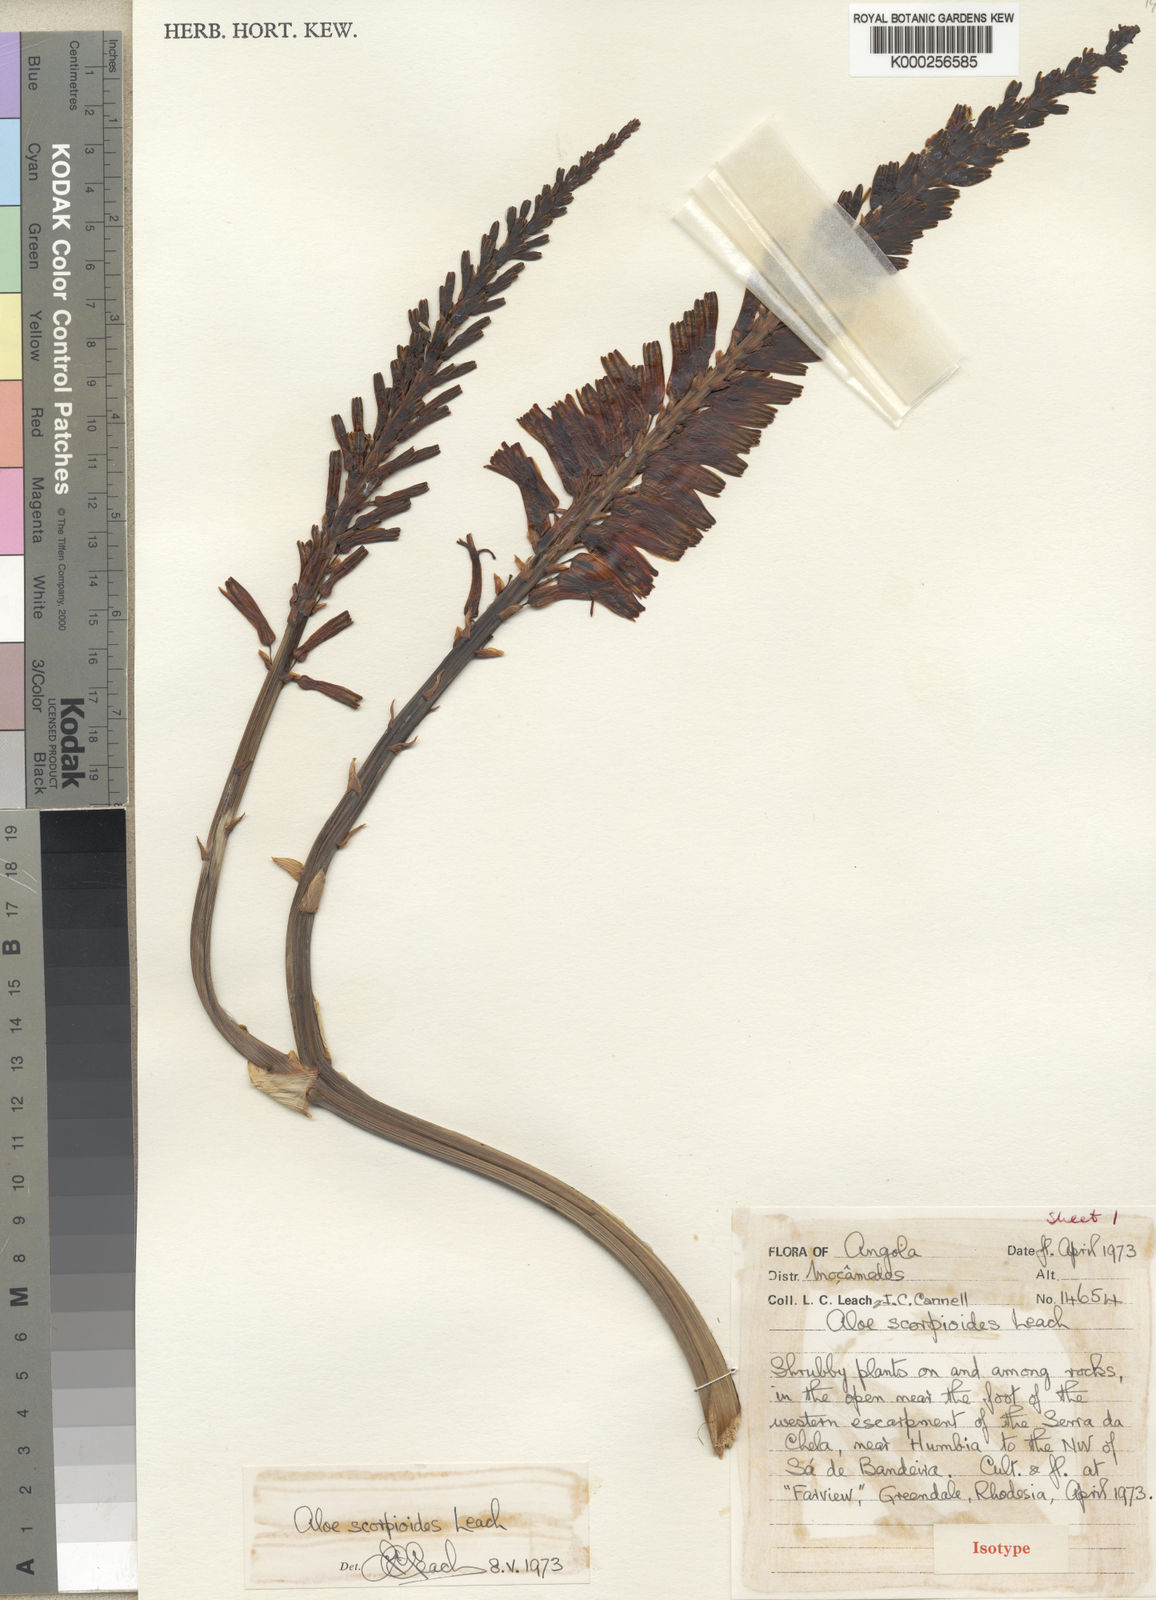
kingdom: Plantae
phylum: Tracheophyta
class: Liliopsida
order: Asparagales
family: Asphodelaceae
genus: Aloe
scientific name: Aloe scorpioides
